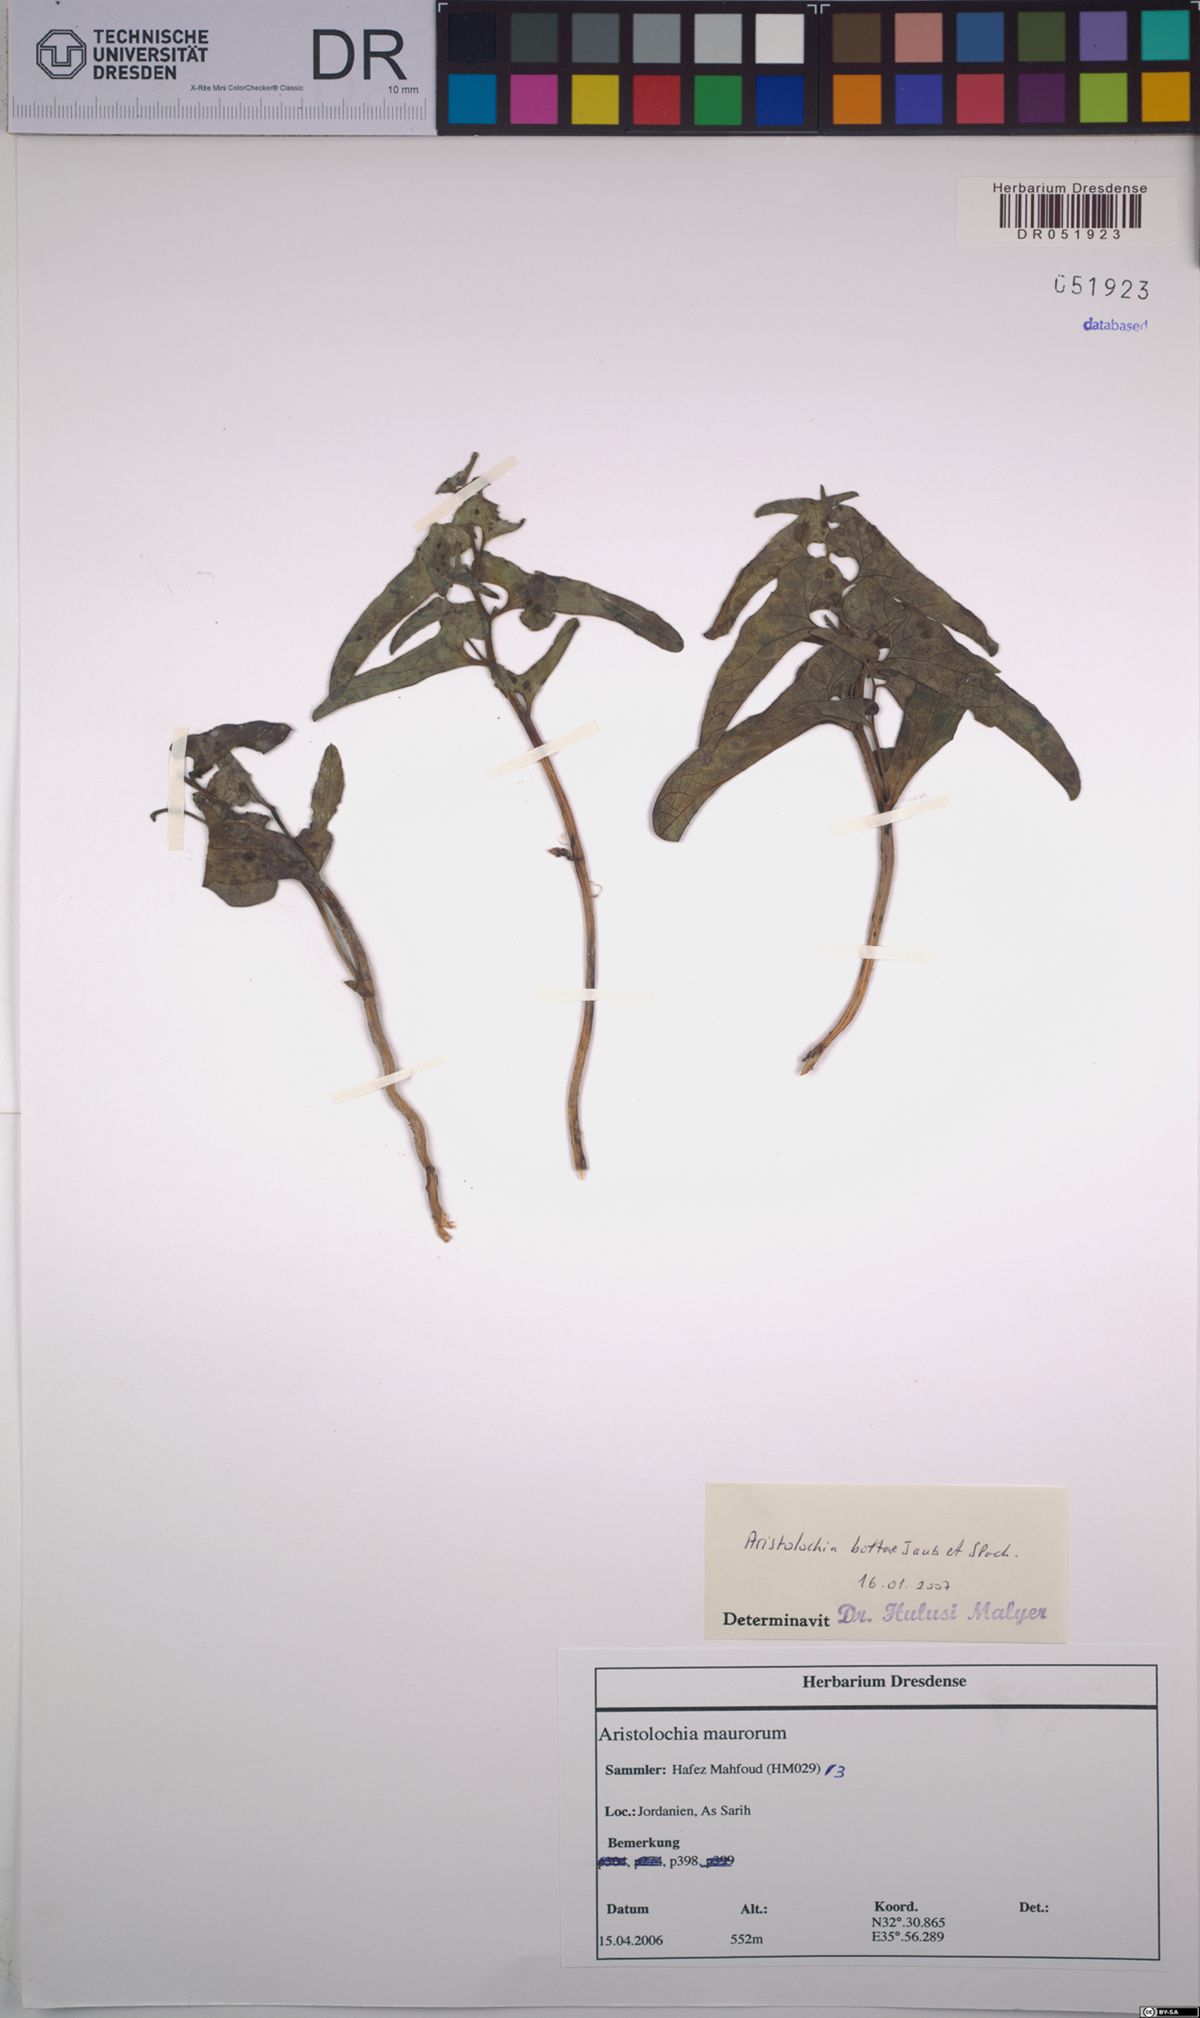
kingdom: Plantae
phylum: Tracheophyta
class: Magnoliopsida
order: Piperales
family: Aristolochiaceae
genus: Aristolochia
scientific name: Aristolochia bottae
